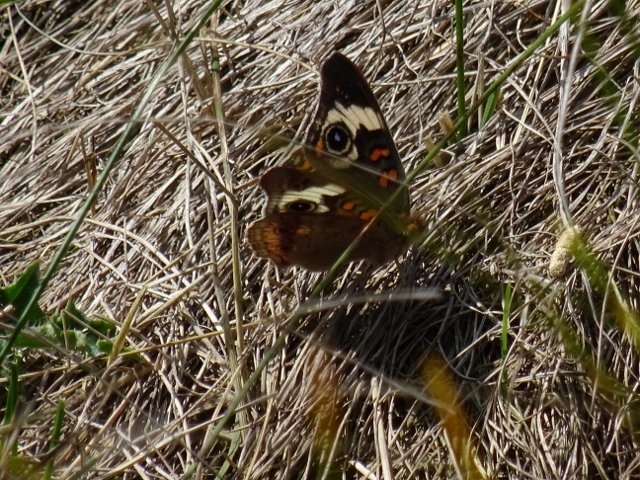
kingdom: Animalia
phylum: Arthropoda
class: Insecta
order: Lepidoptera
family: Nymphalidae
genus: Junonia
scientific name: Junonia coenia
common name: Common Buckeye
